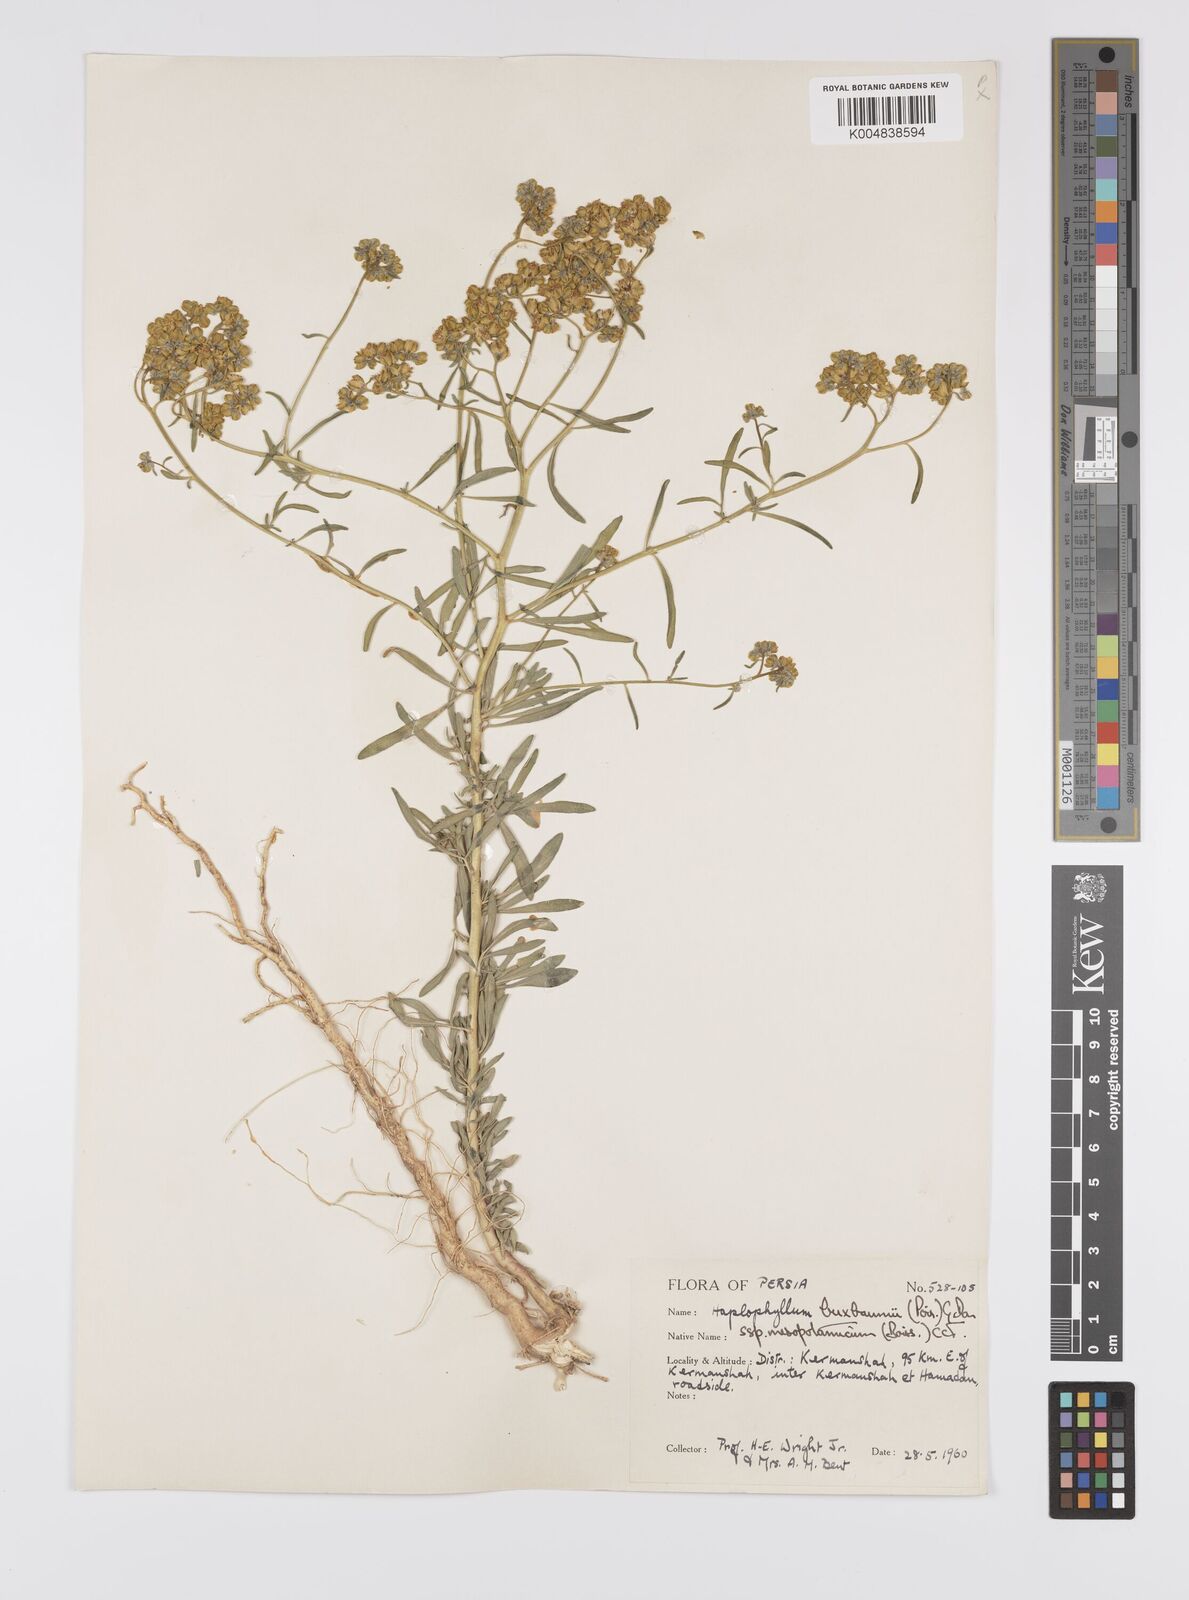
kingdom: Plantae
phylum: Tracheophyta
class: Magnoliopsida
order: Sapindales
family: Rutaceae
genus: Haplophyllum
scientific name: Haplophyllum buxbaumii
